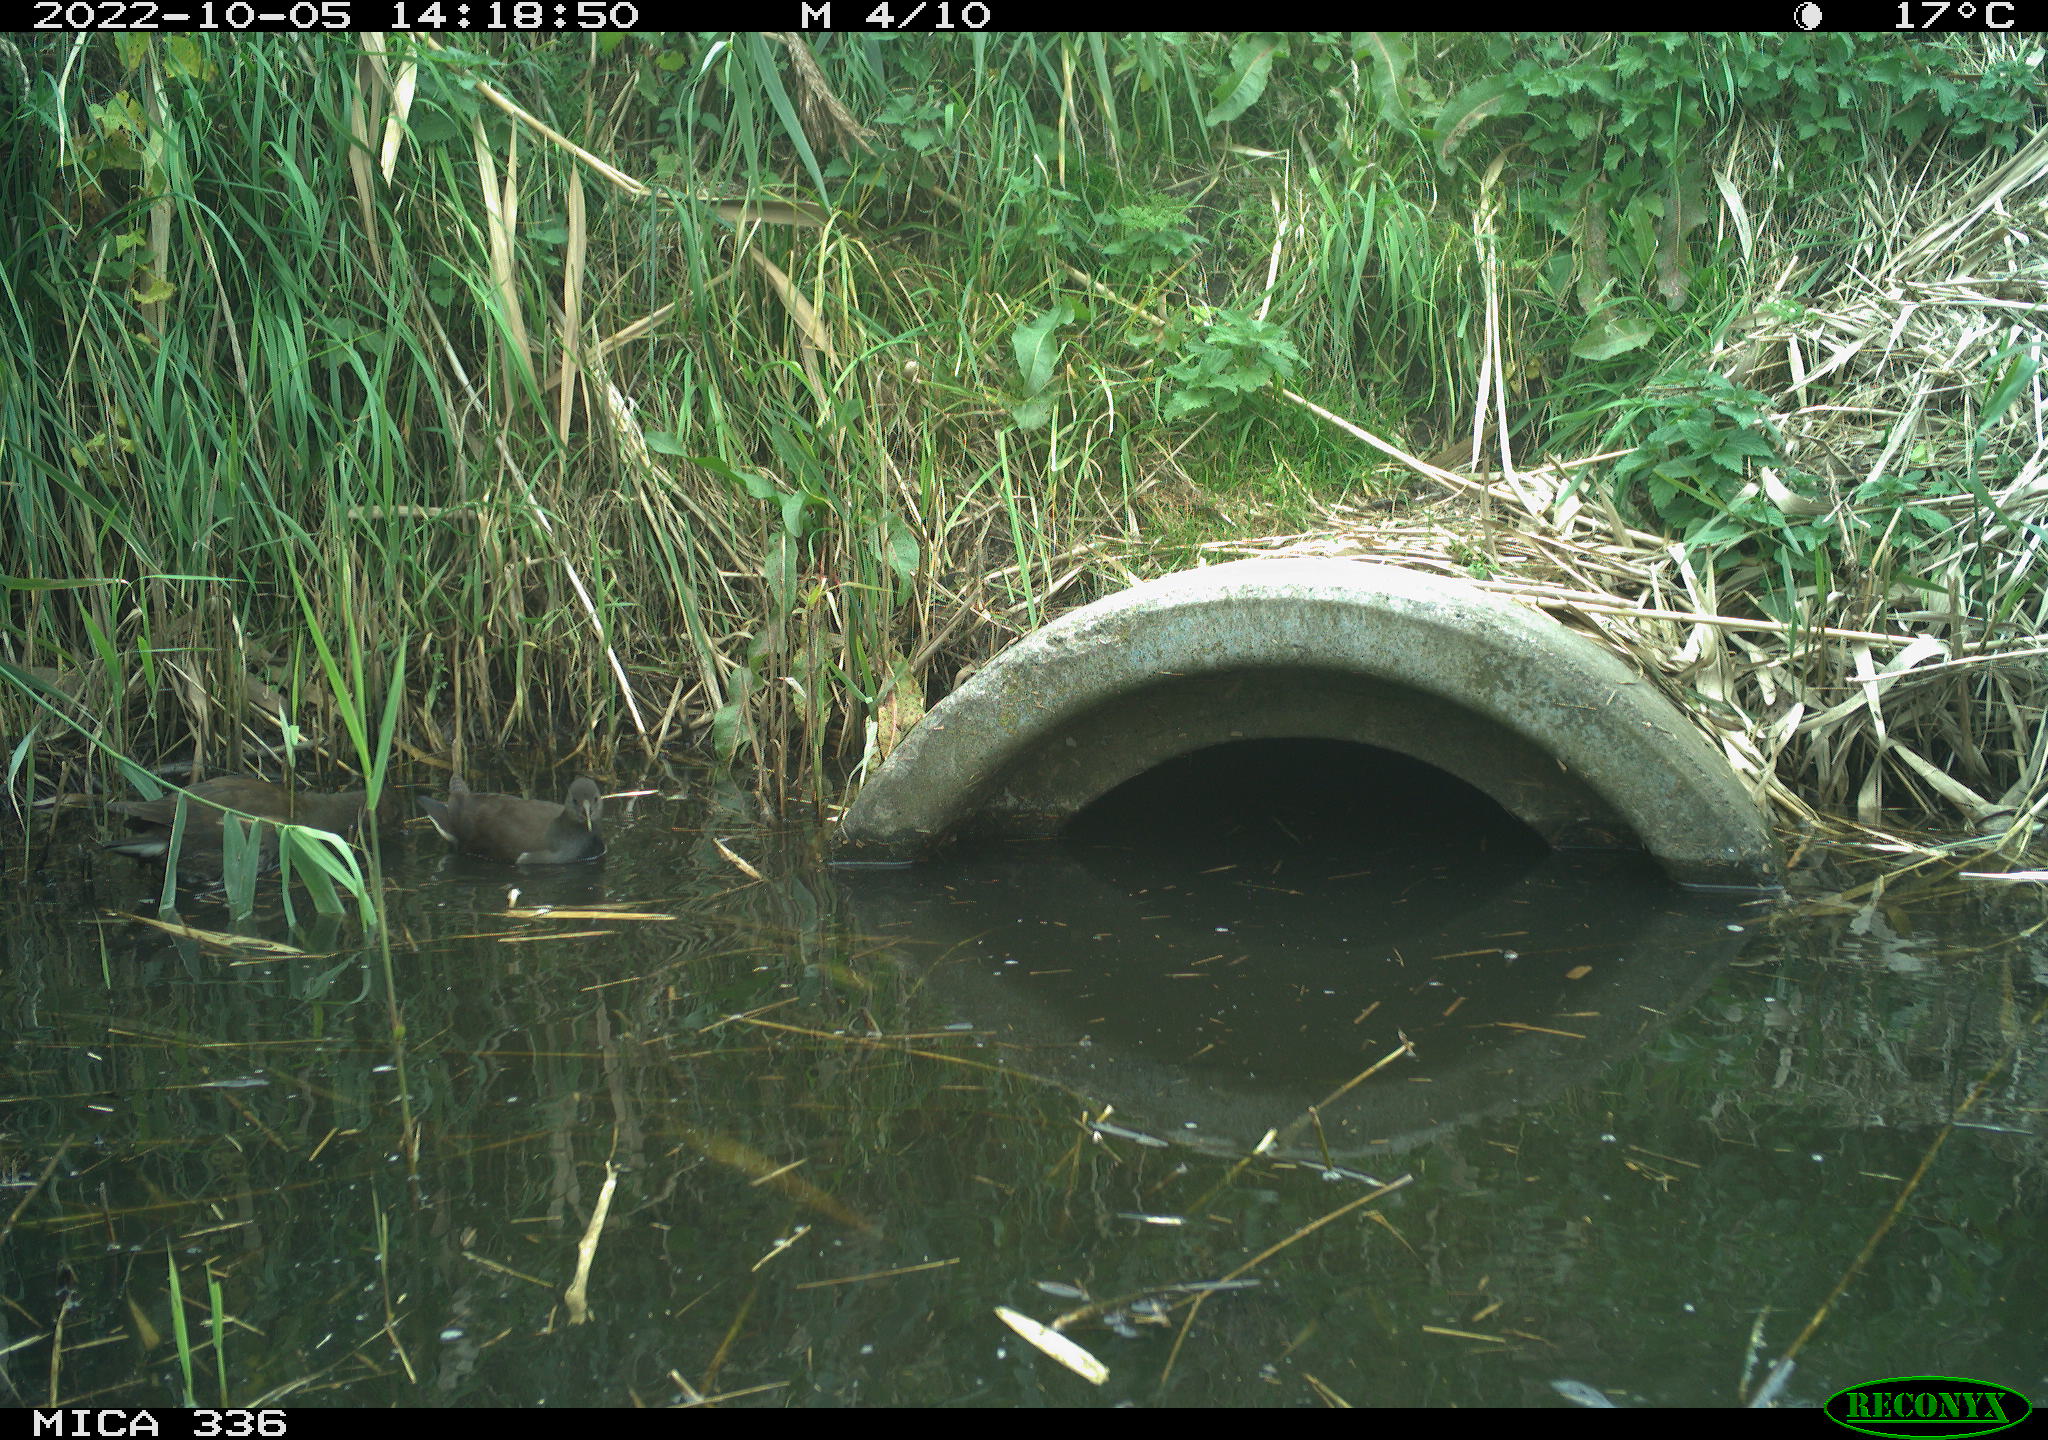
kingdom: Animalia
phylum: Chordata
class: Aves
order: Gruiformes
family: Rallidae
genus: Gallinula
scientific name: Gallinula chloropus
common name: Common moorhen
